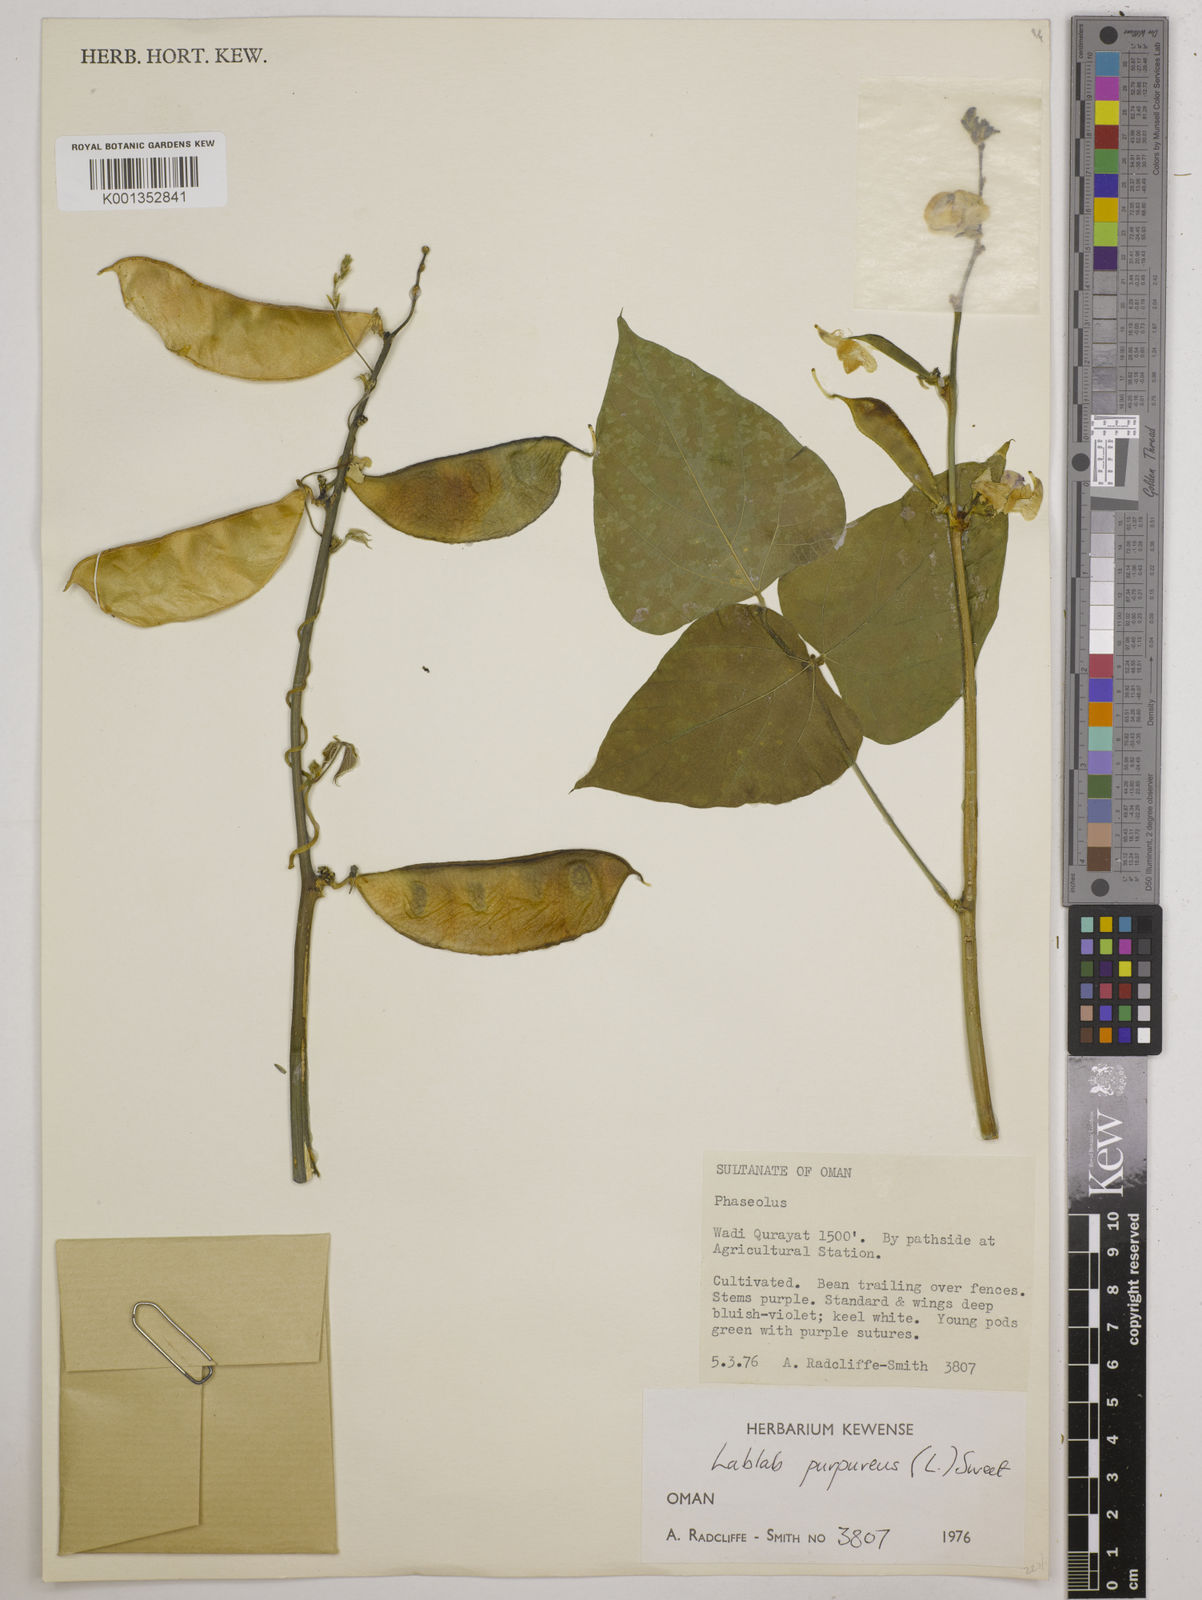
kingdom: Plantae
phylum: Tracheophyta
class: Magnoliopsida
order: Fabales
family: Fabaceae
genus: Lablab
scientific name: Lablab purpureus
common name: Lablab-bean
